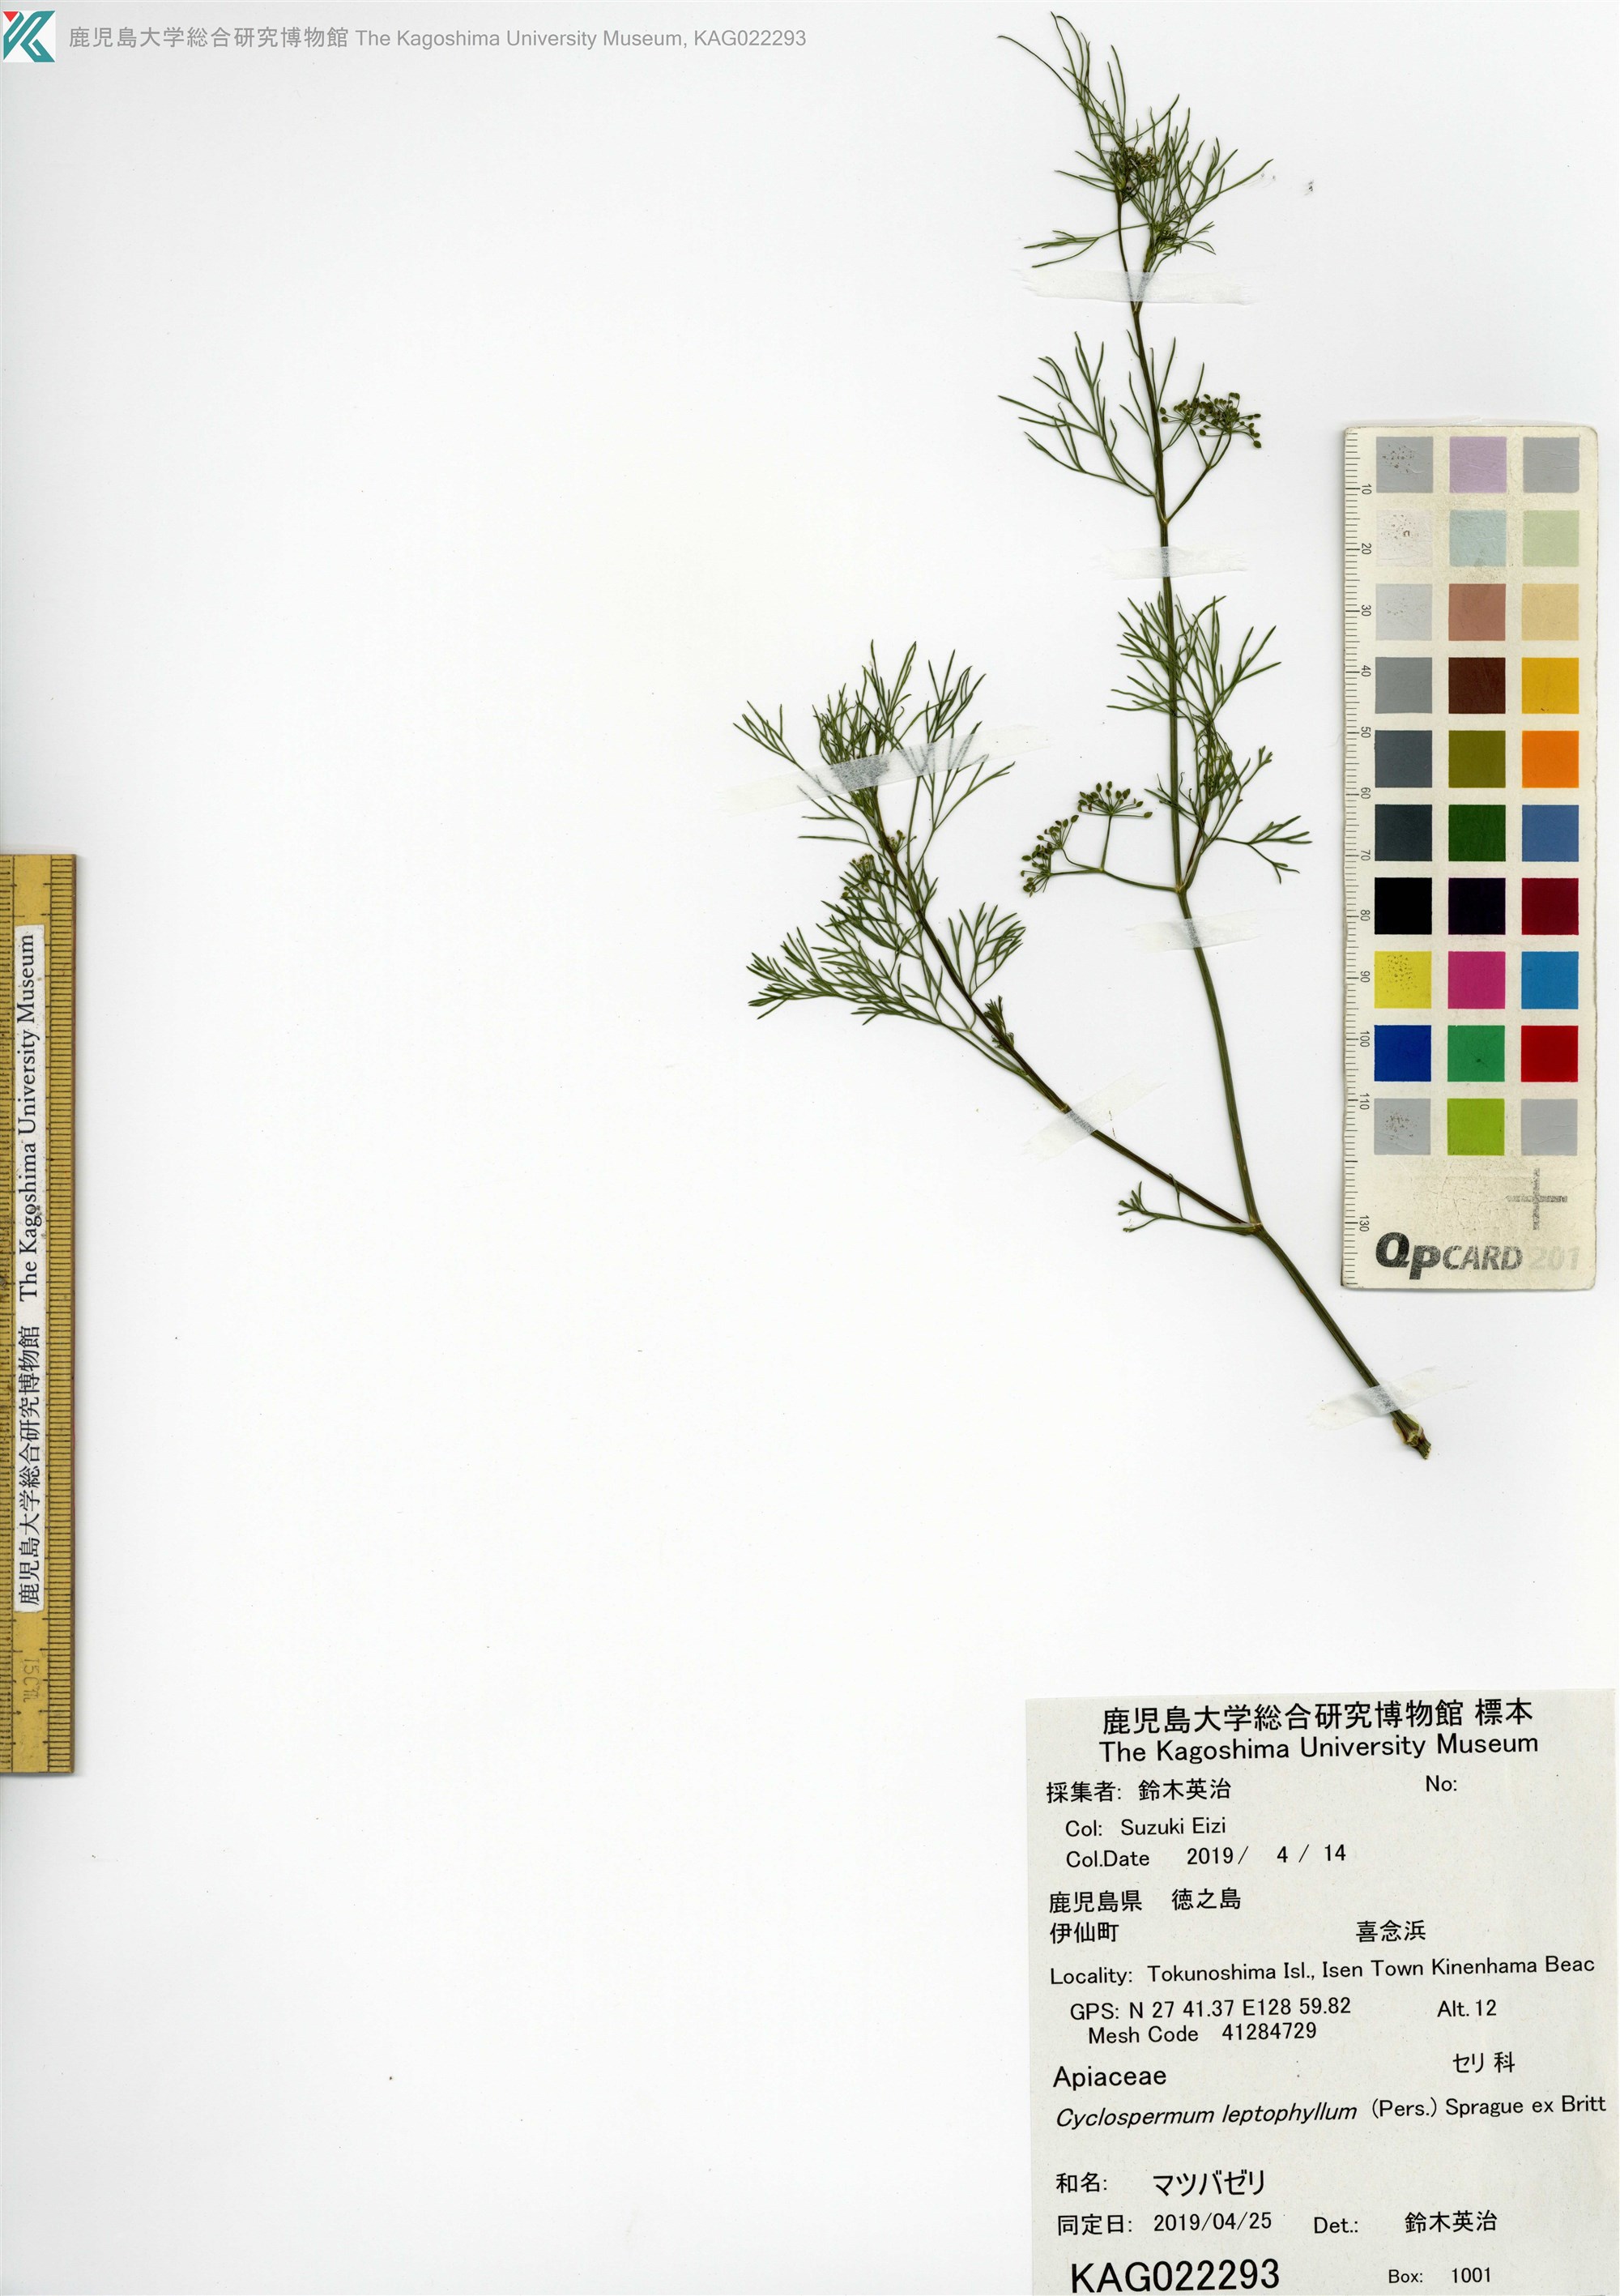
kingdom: Plantae
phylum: Tracheophyta
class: Magnoliopsida
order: Apiales
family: Apiaceae
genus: Cyclospermum
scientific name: Cyclospermum leptophyllum
